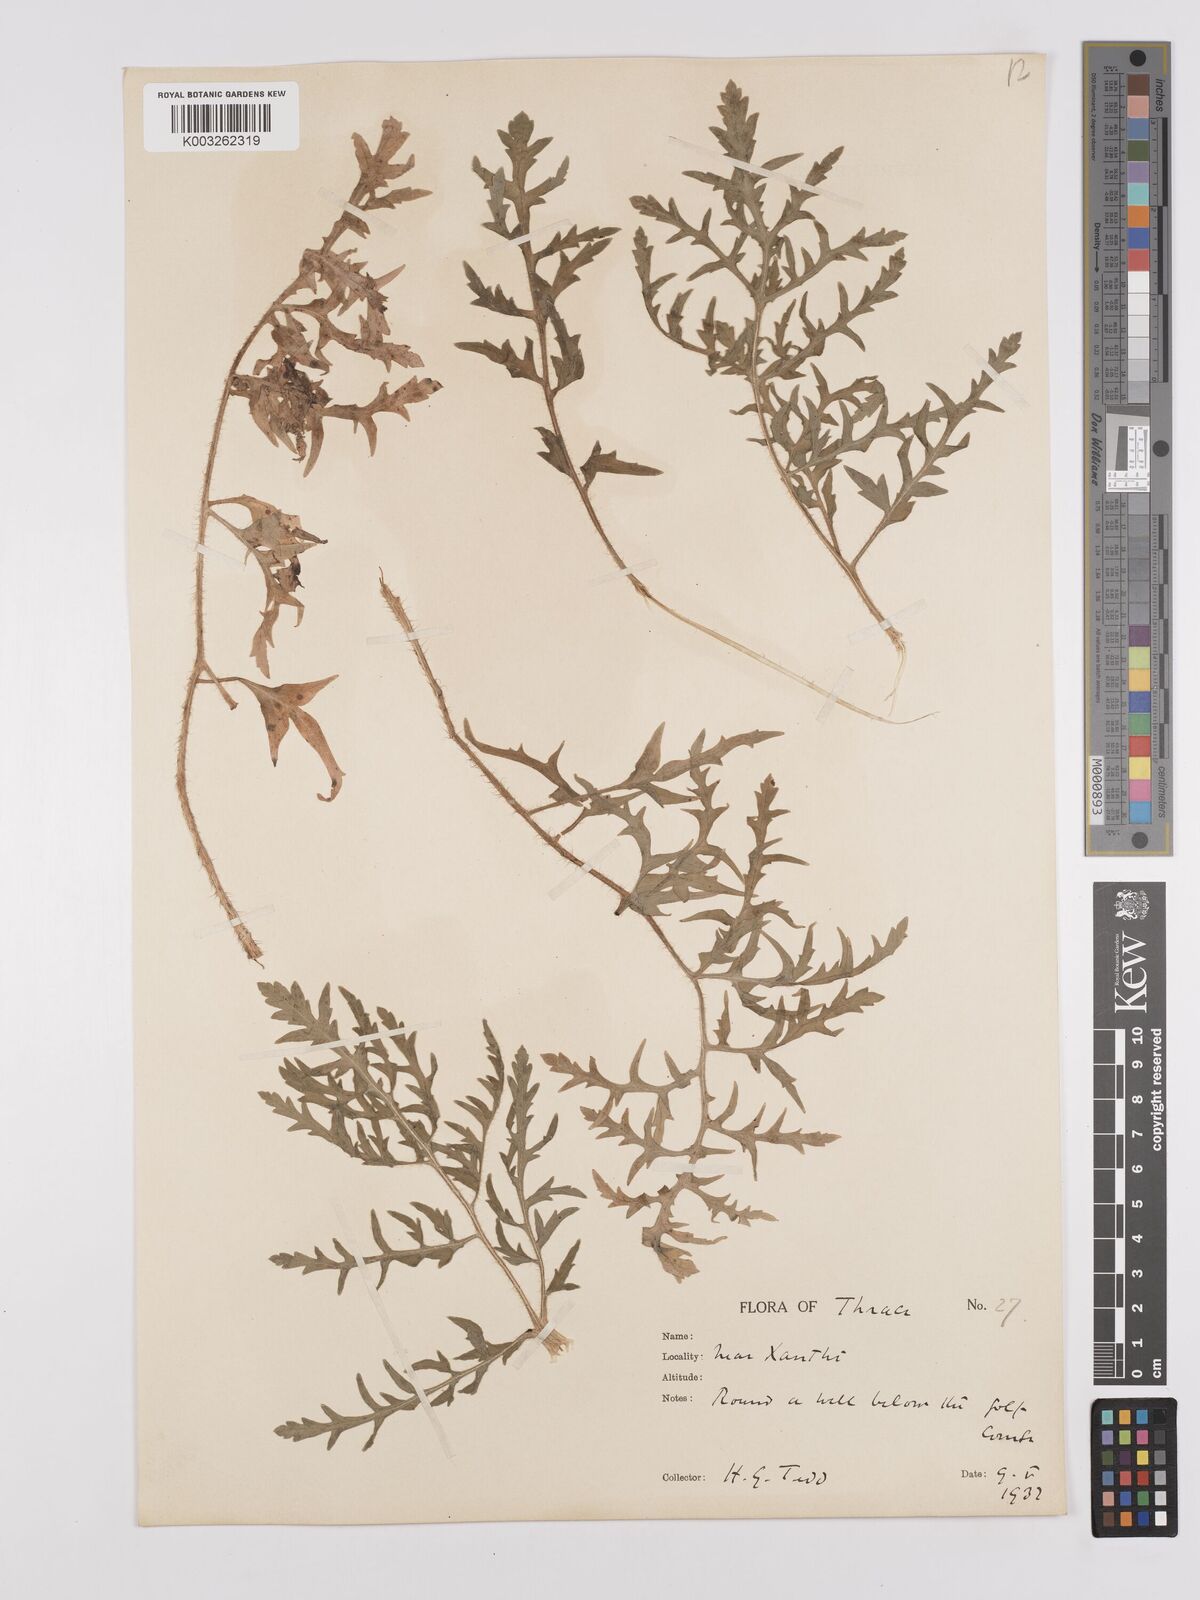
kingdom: Plantae
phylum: Tracheophyta
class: Magnoliopsida
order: Ranunculales
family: Papaveraceae
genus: Papaver
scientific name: Papaver rhoeas
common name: Corn poppy
